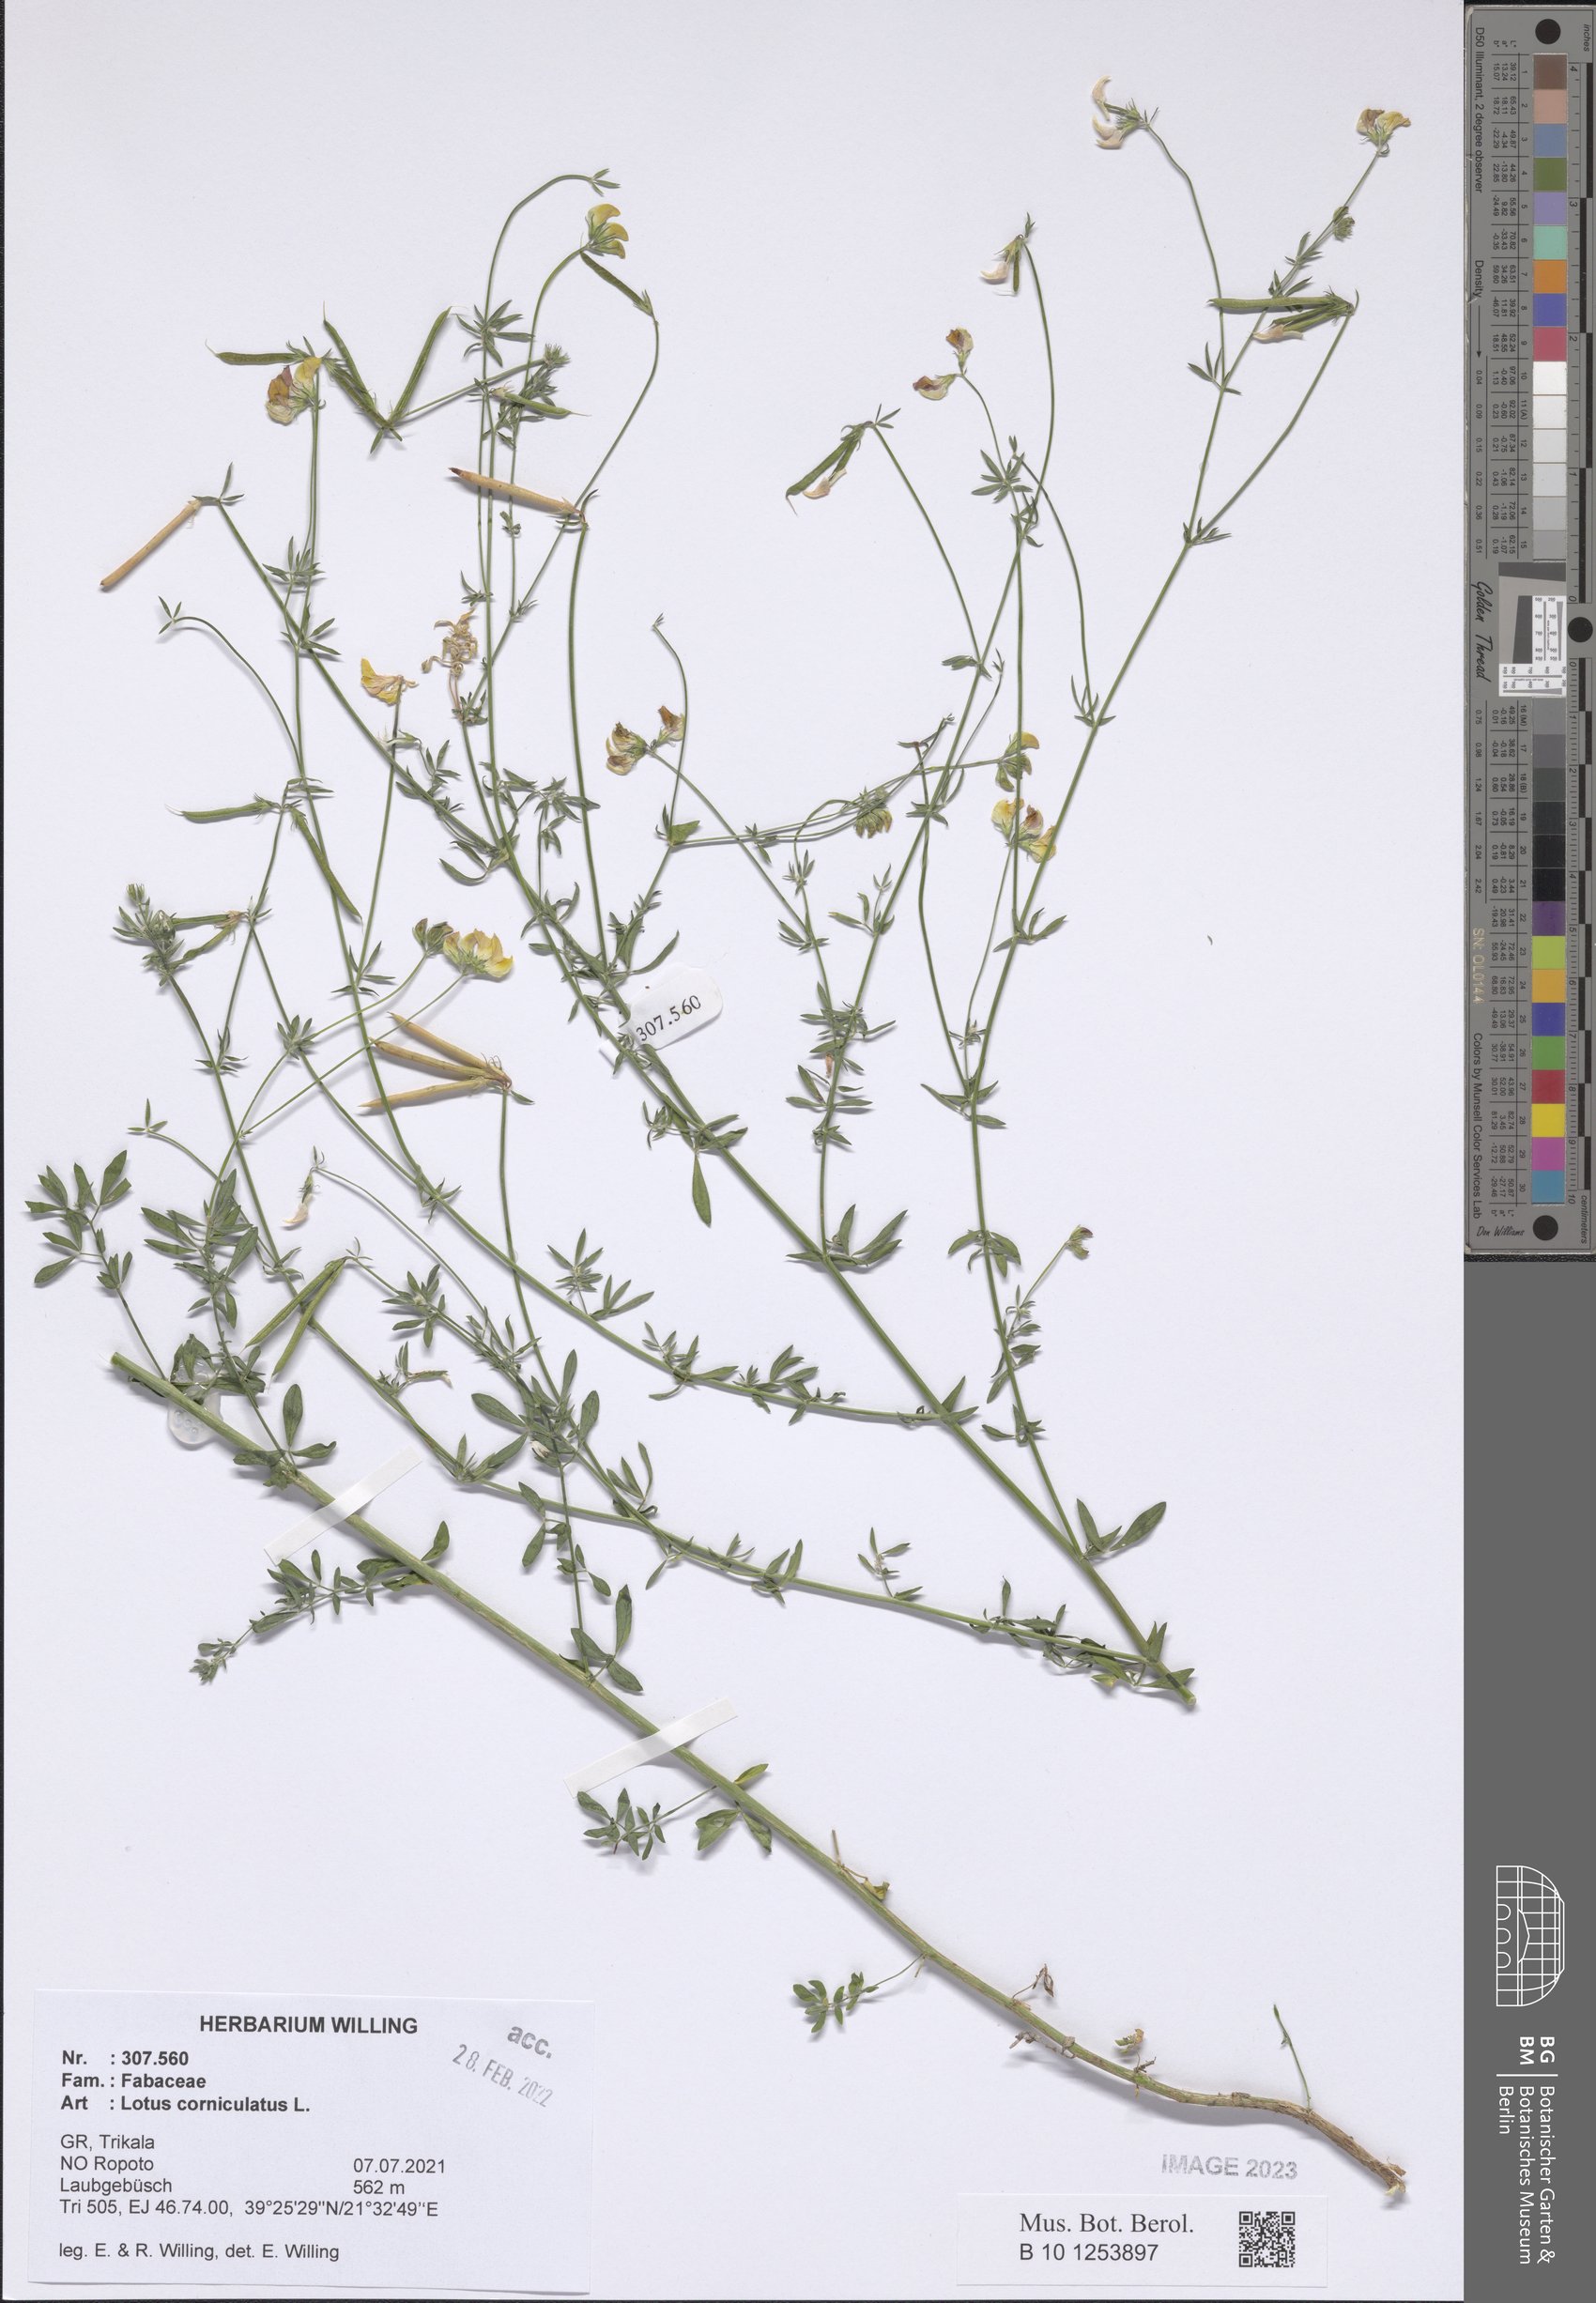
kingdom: Plantae
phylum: Tracheophyta
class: Magnoliopsida
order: Fabales
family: Fabaceae
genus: Lotus
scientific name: Lotus corniculatus
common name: Common bird's-foot-trefoil
